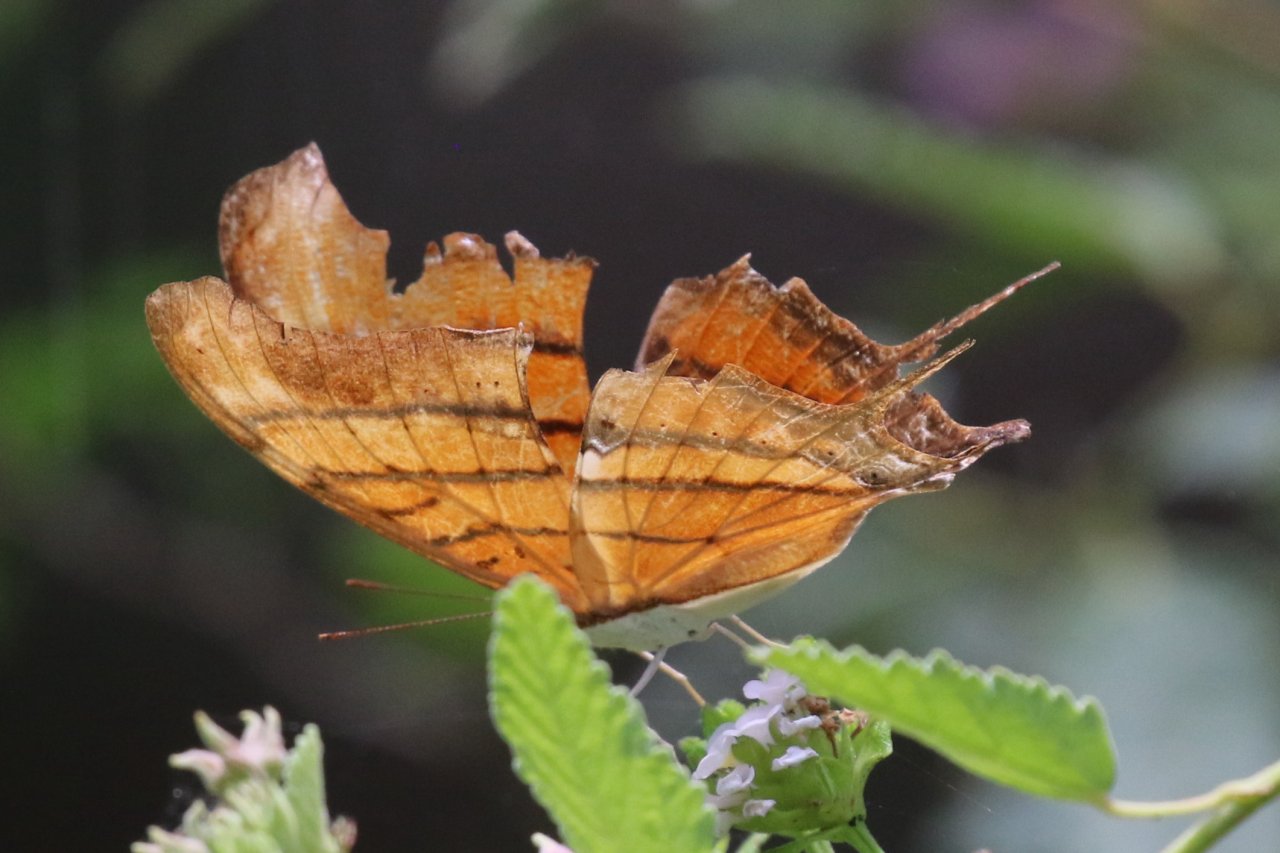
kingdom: Animalia
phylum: Arthropoda
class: Insecta
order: Lepidoptera
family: Nymphalidae
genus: Marpesia
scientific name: Marpesia petreus
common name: Ruddy Daggerwing
